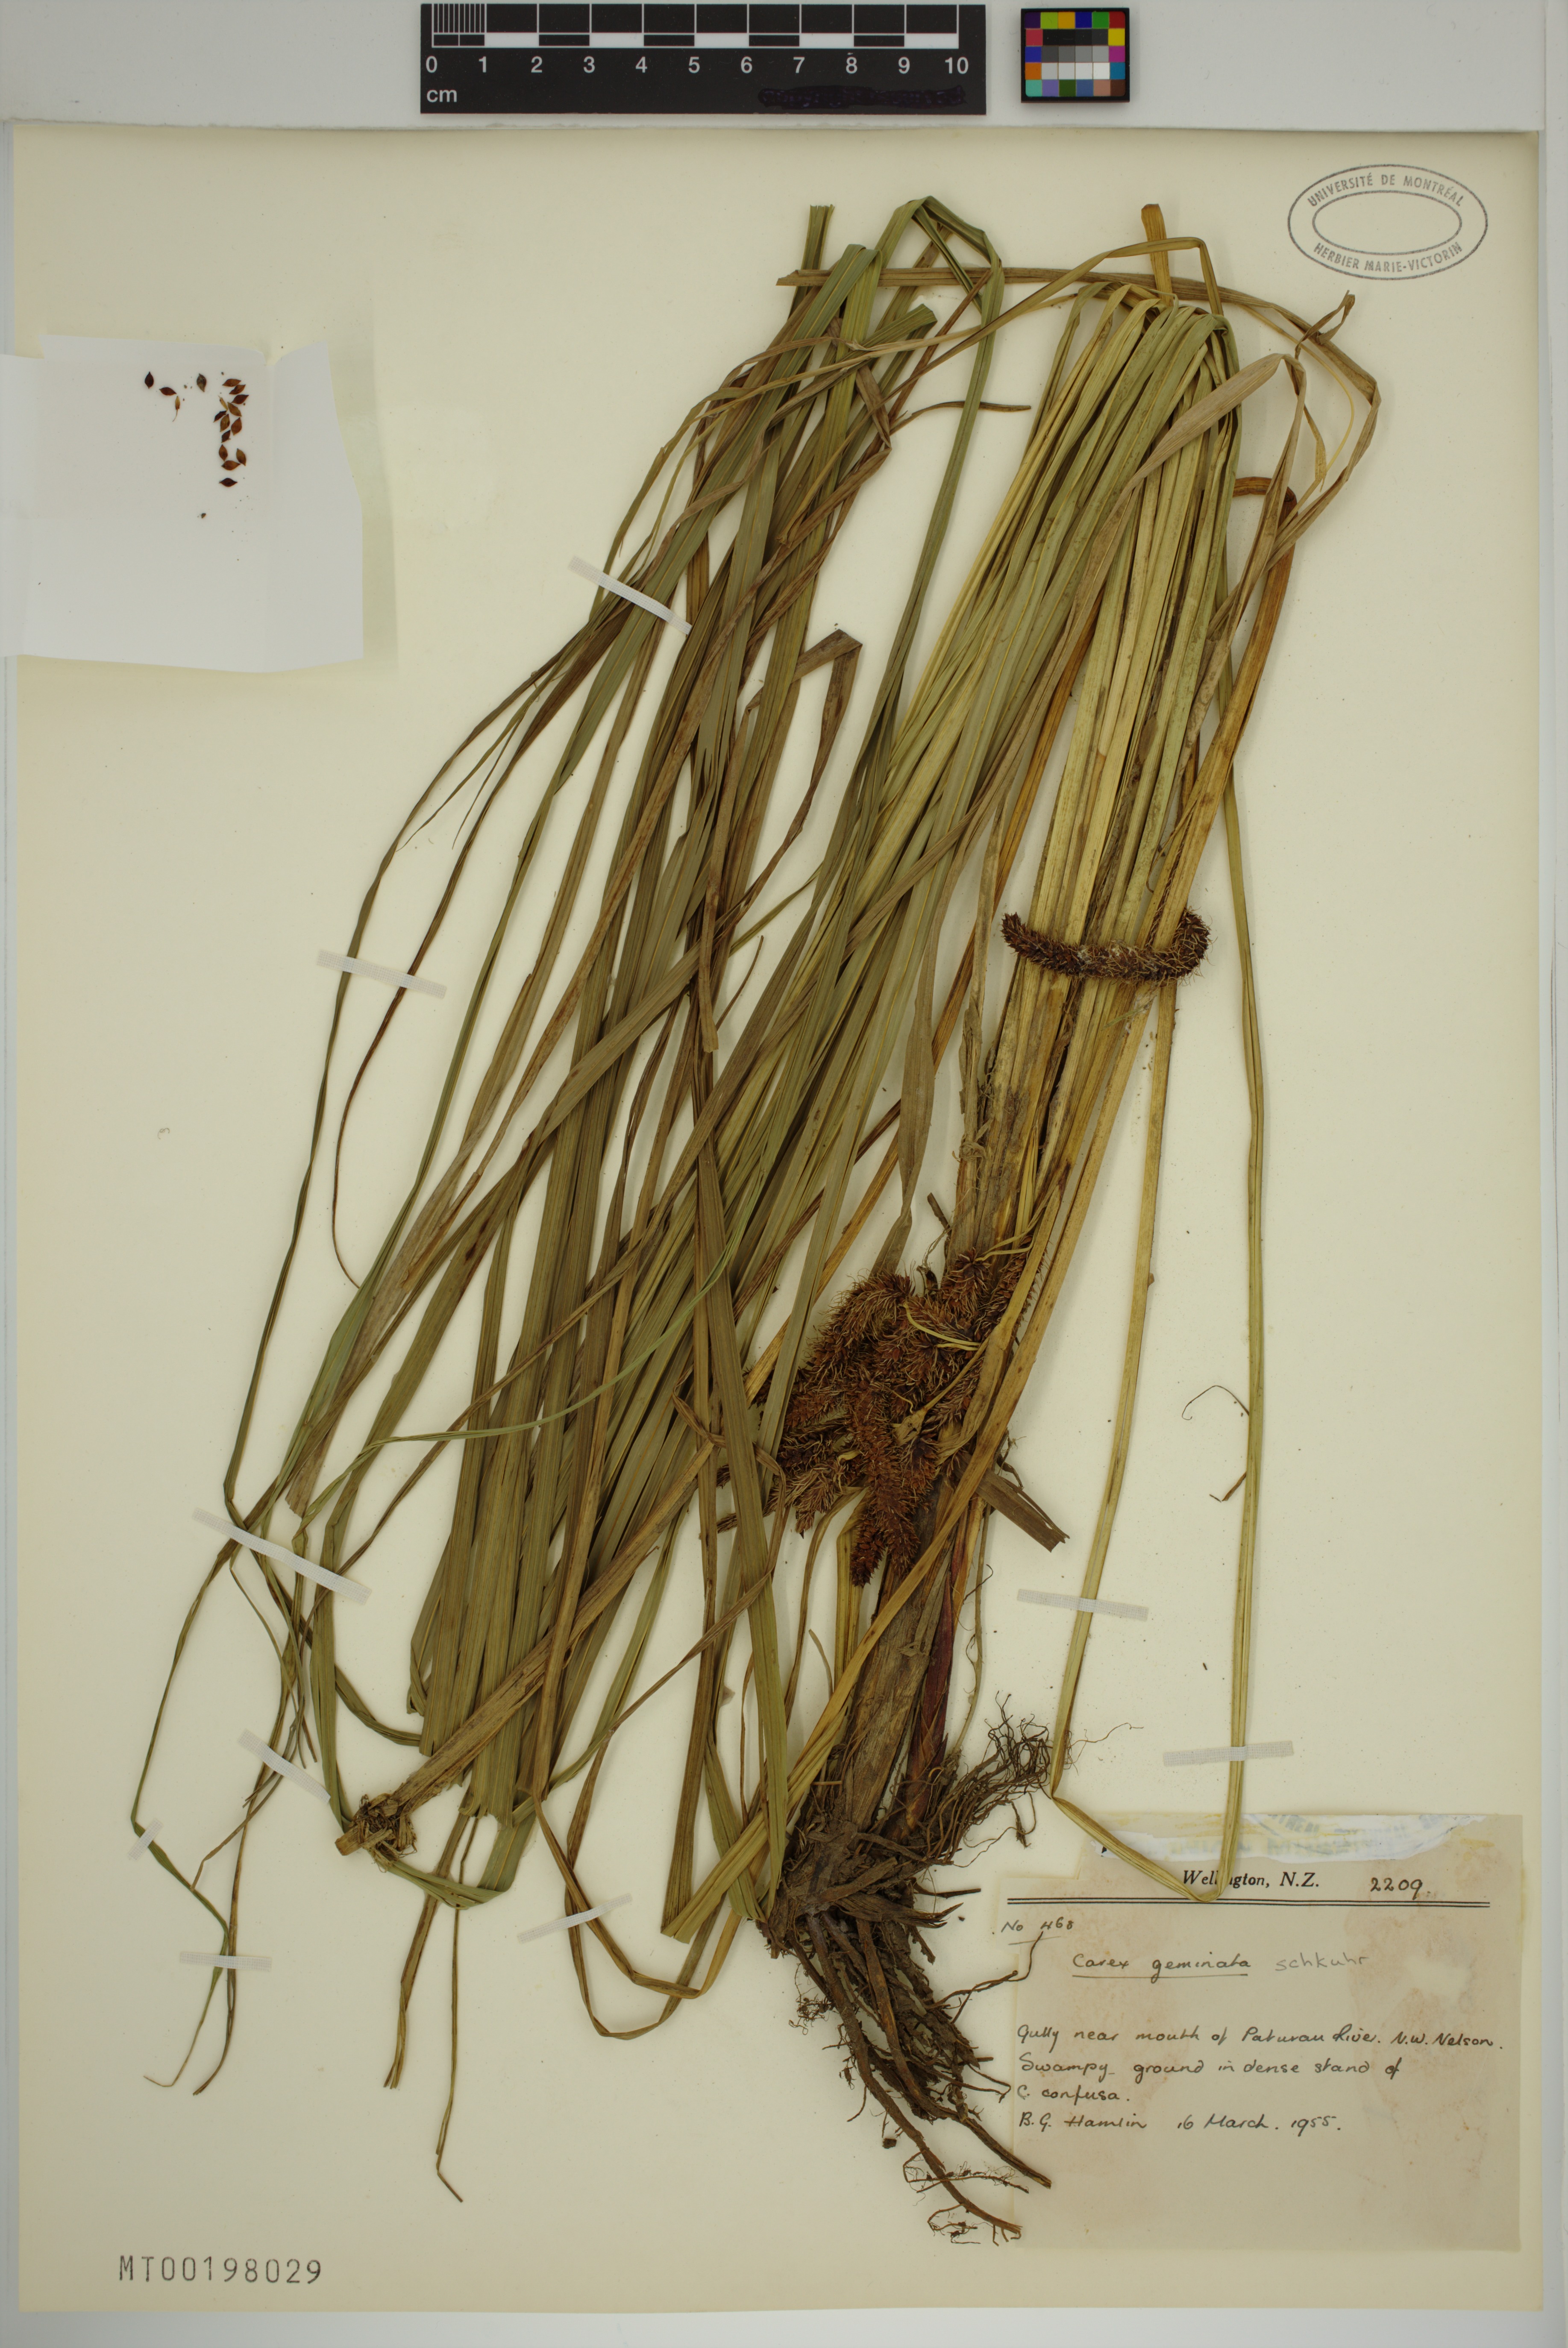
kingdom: Plantae
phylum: Tracheophyta
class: Liliopsida
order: Poales
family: Cyperaceae
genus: Carex
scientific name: Carex geminata
